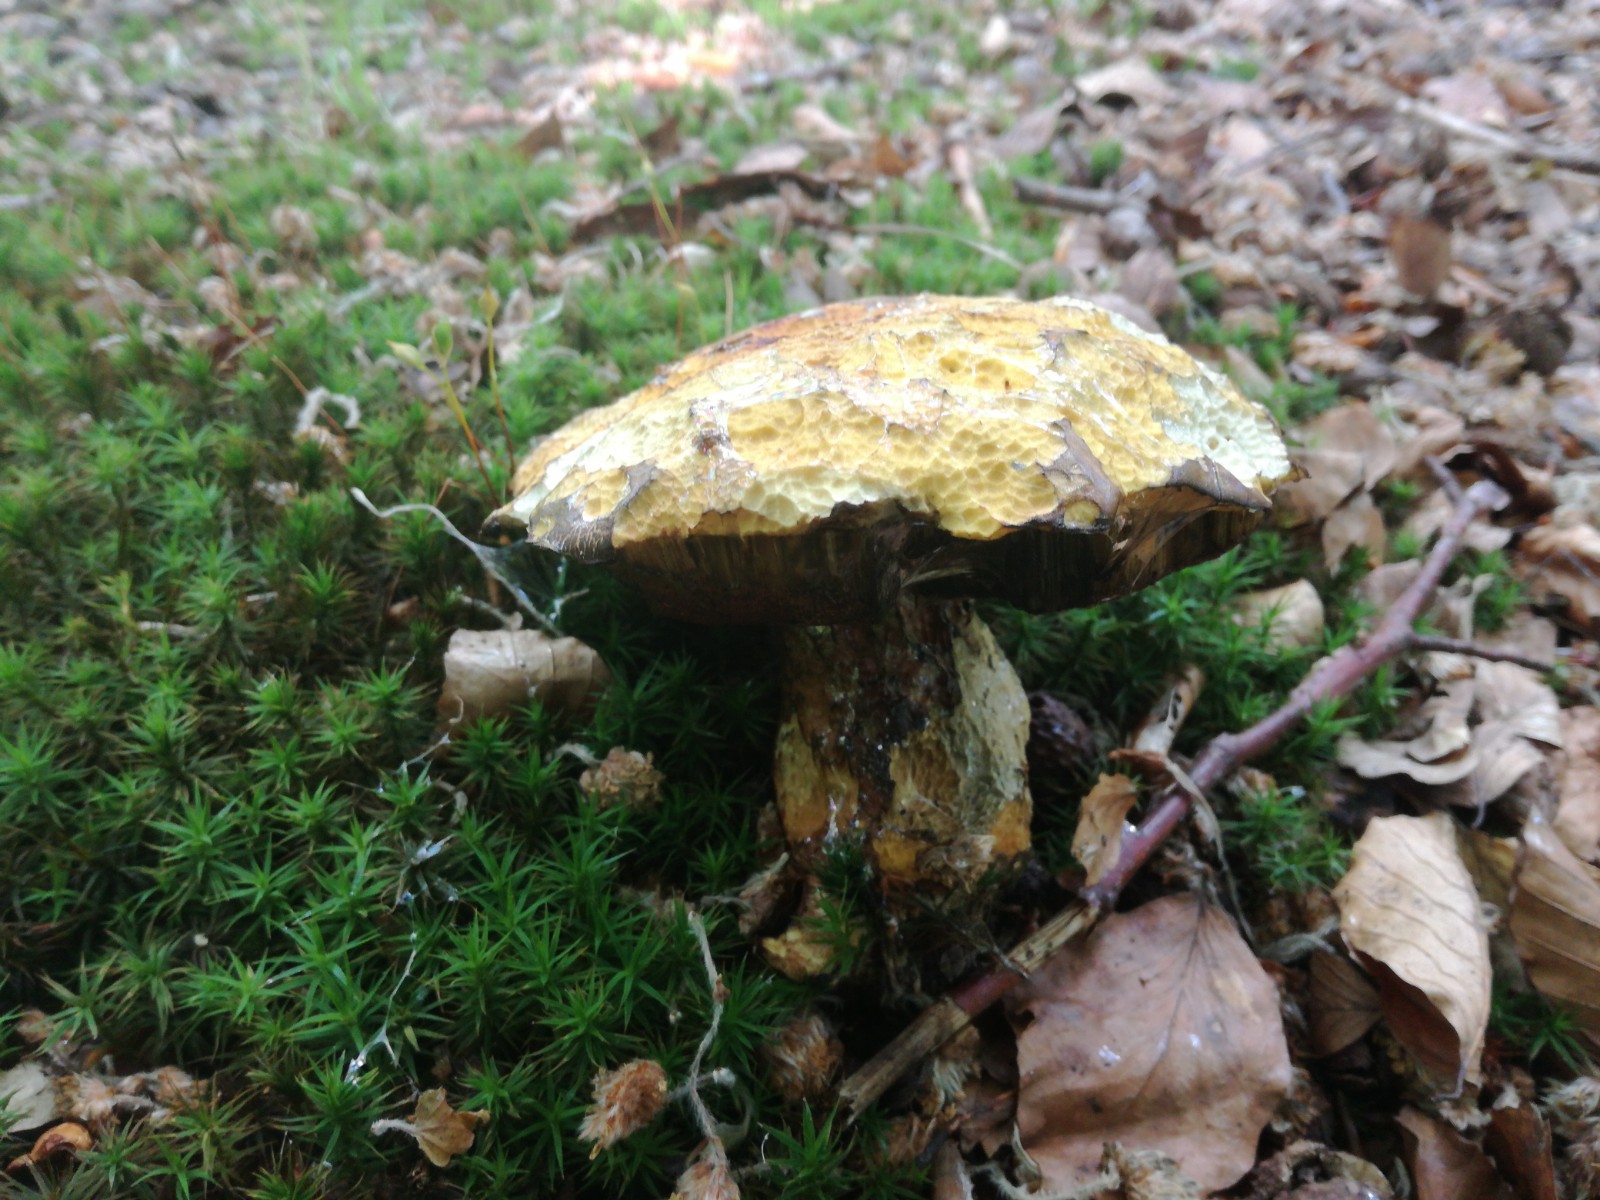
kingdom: Fungi
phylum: Basidiomycota
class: Agaricomycetes
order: Boletales
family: Boletaceae
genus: Neoboletus
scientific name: Neoboletus erythropus
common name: punktstokket indigorørhat
